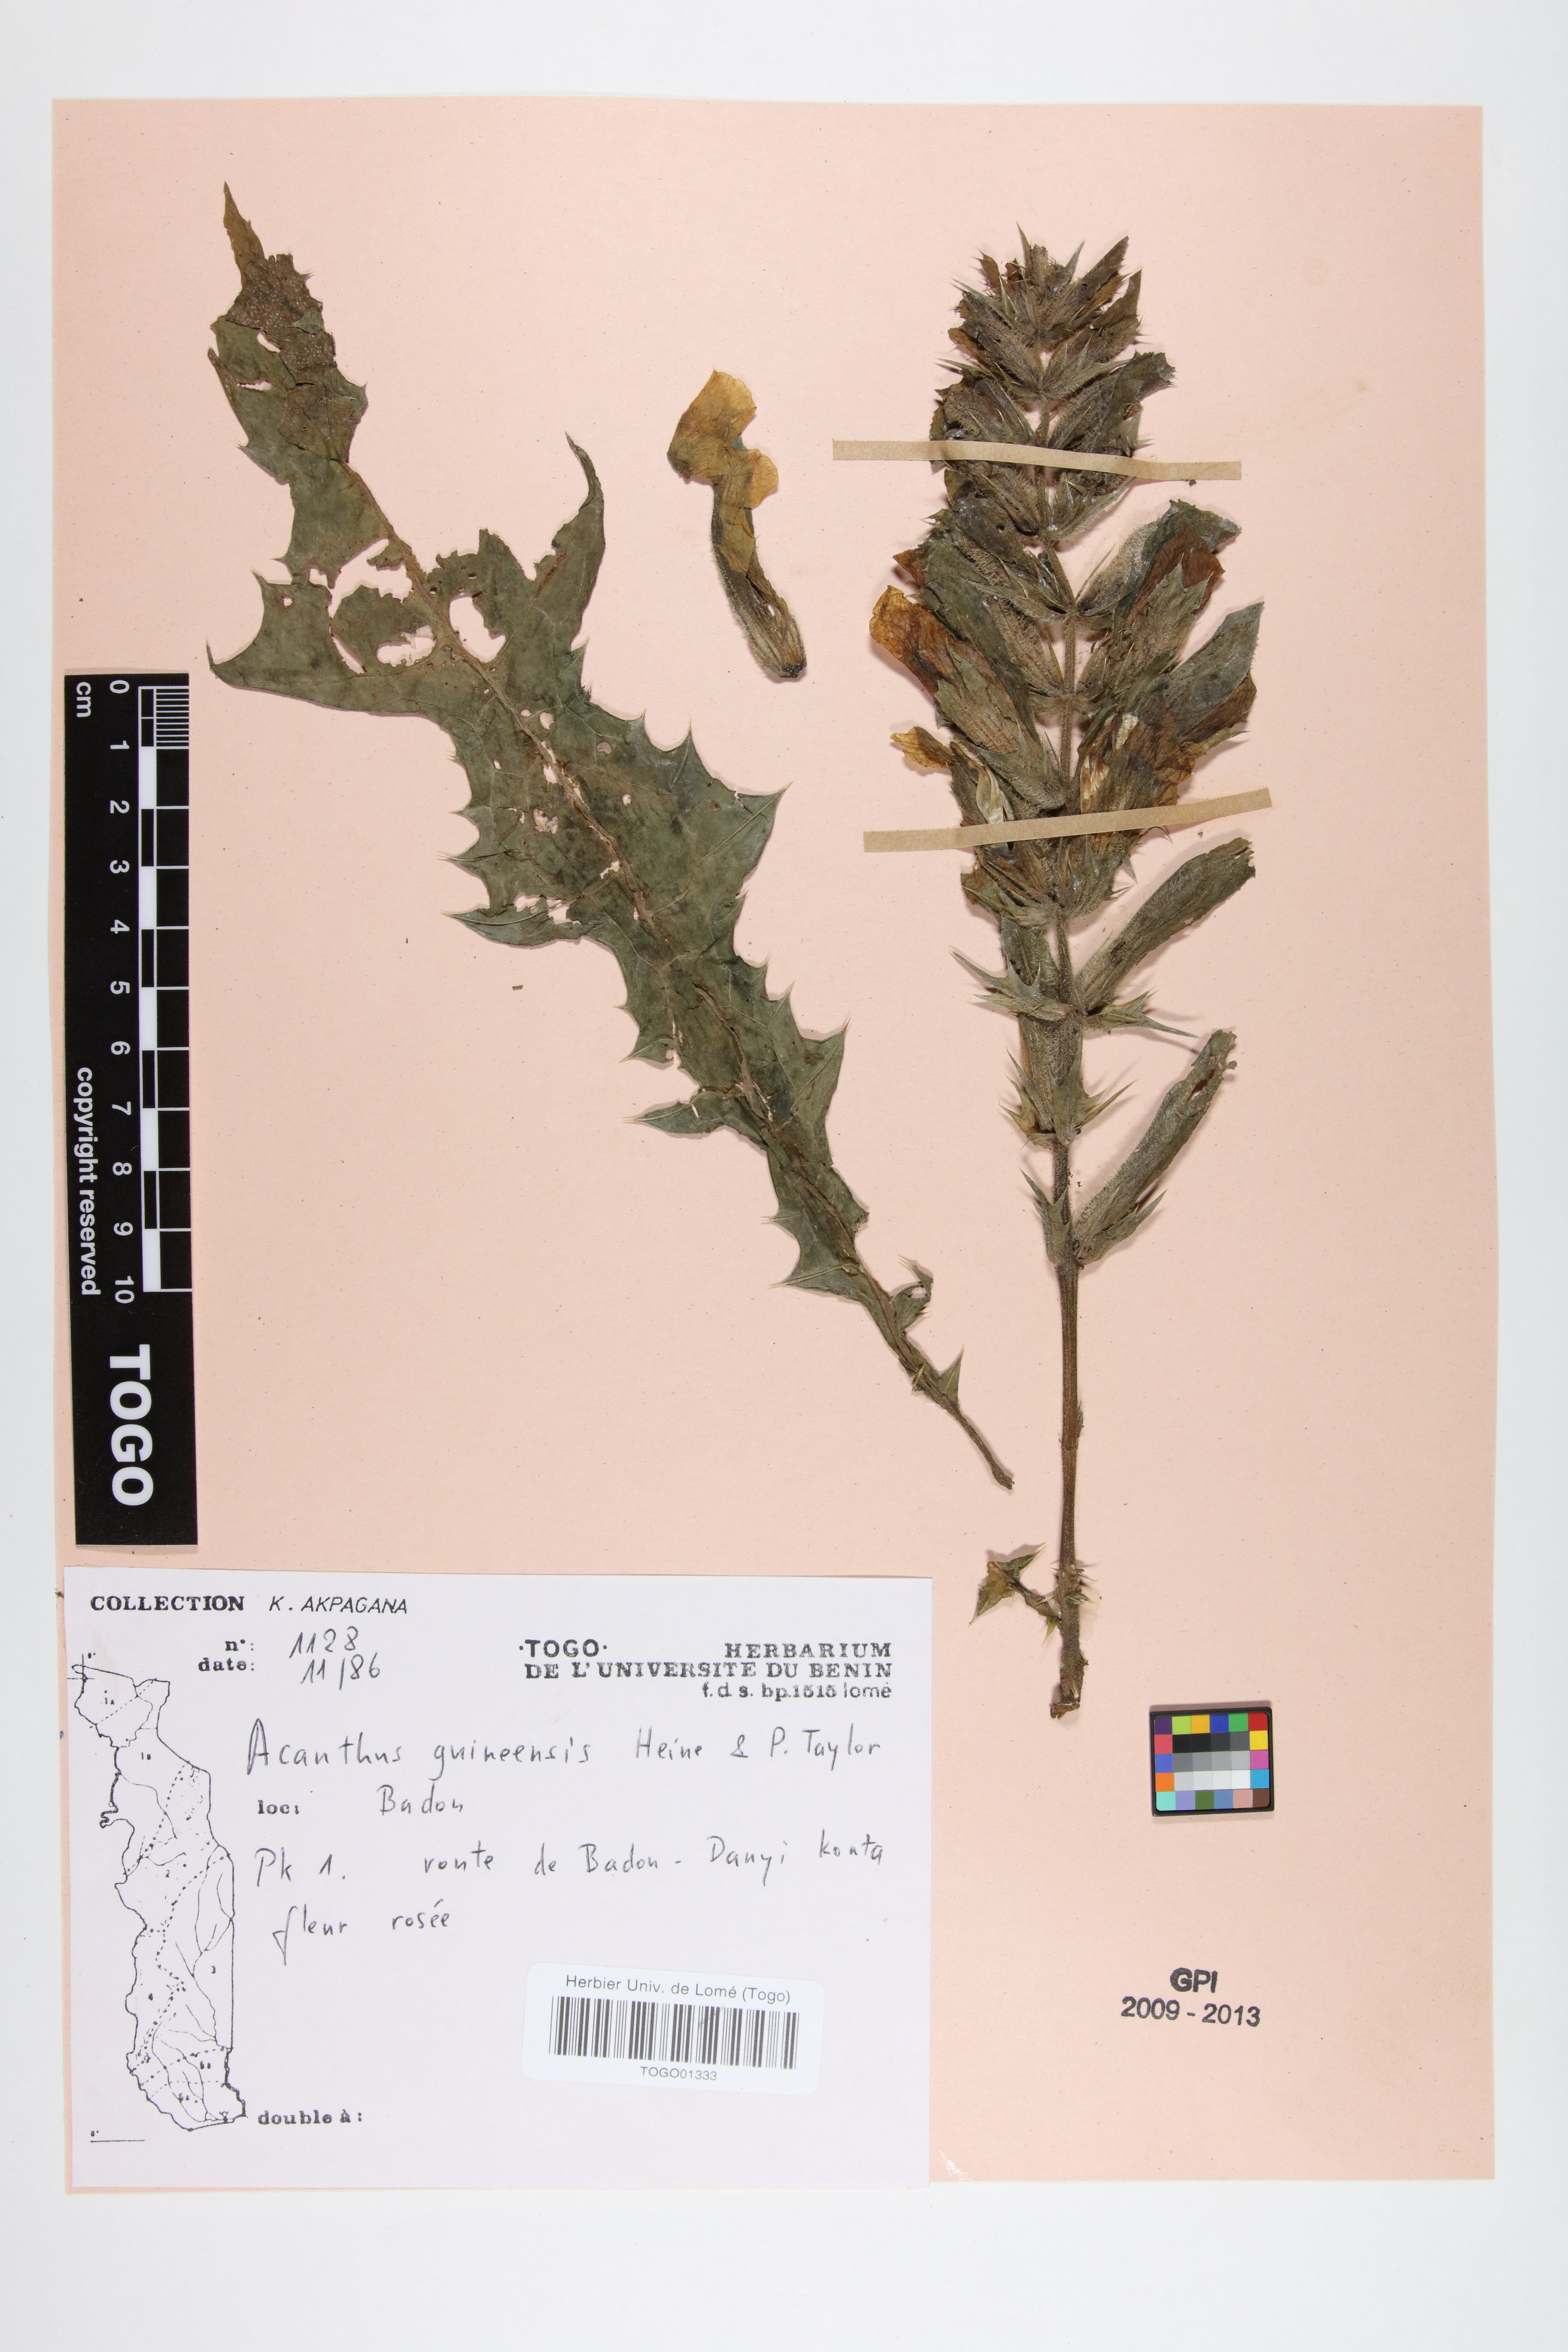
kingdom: Plantae
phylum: Tracheophyta
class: Magnoliopsida
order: Lamiales
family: Acanthaceae
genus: Acanthus
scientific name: Acanthus guineensis
